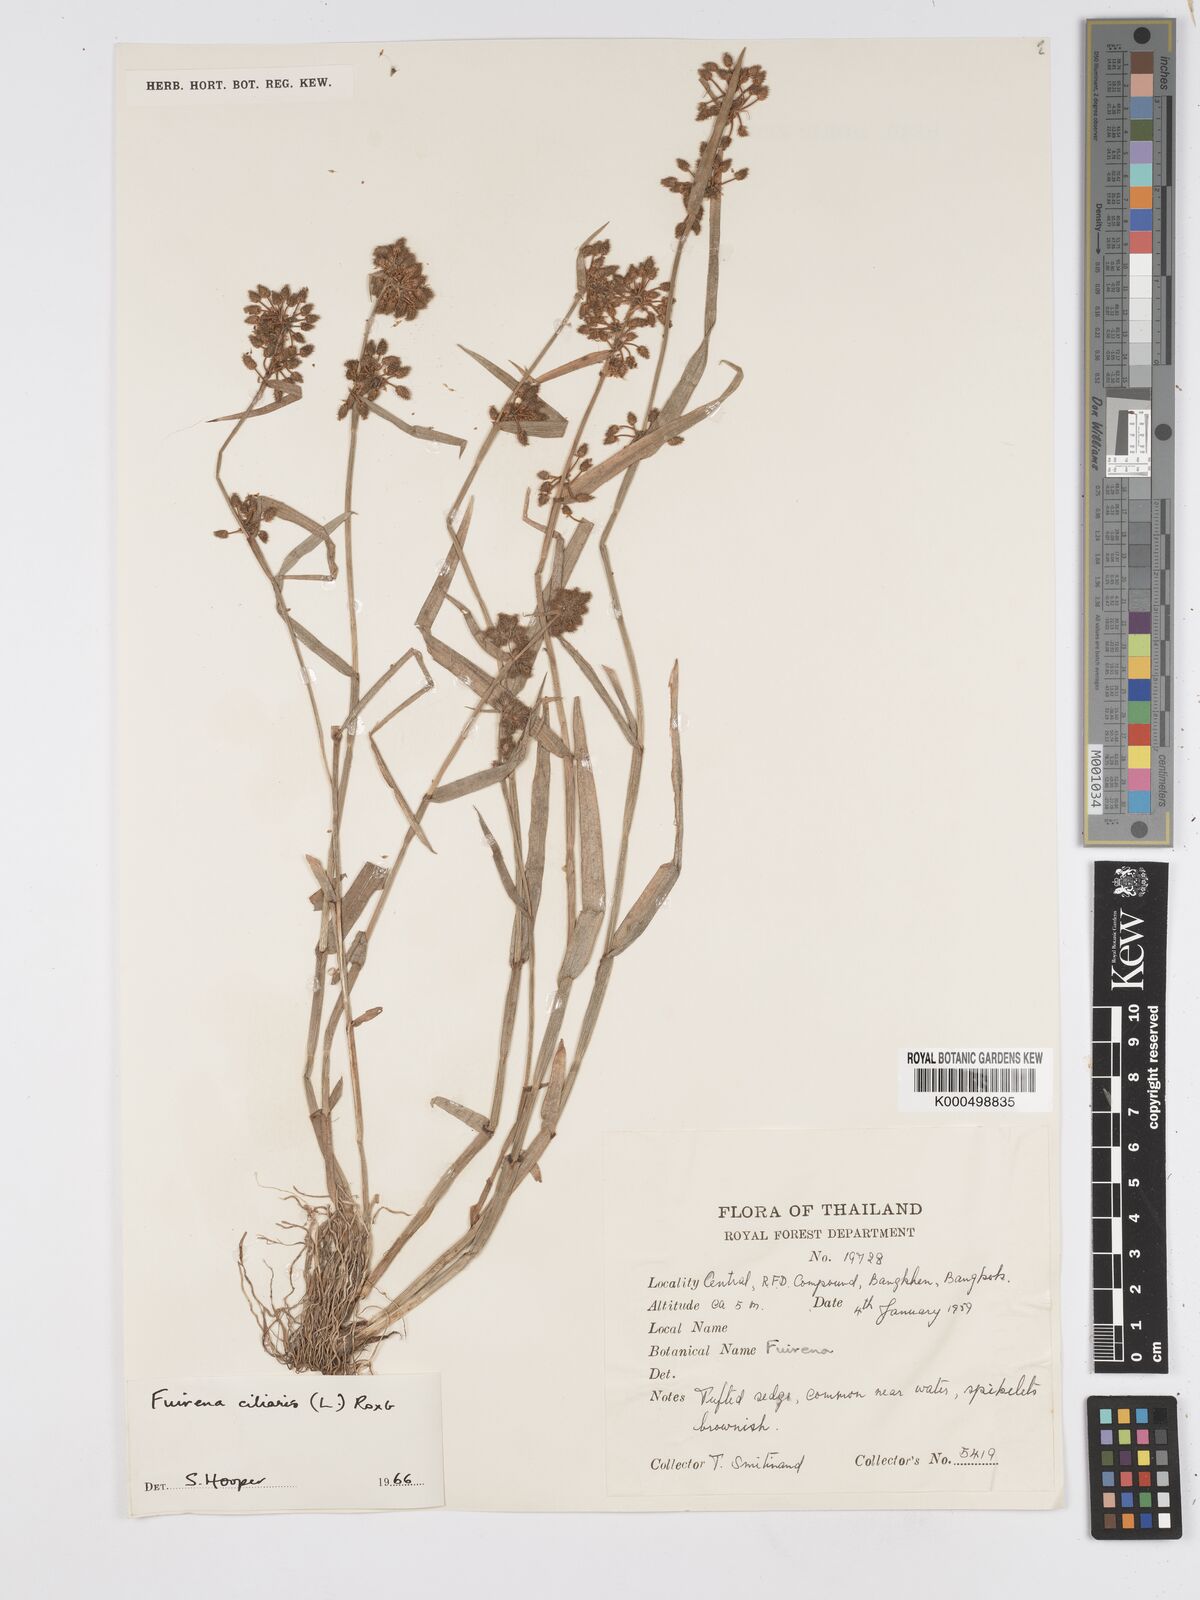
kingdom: Plantae
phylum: Tracheophyta
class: Liliopsida
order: Poales
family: Cyperaceae
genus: Fuirena
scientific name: Fuirena ciliaris
